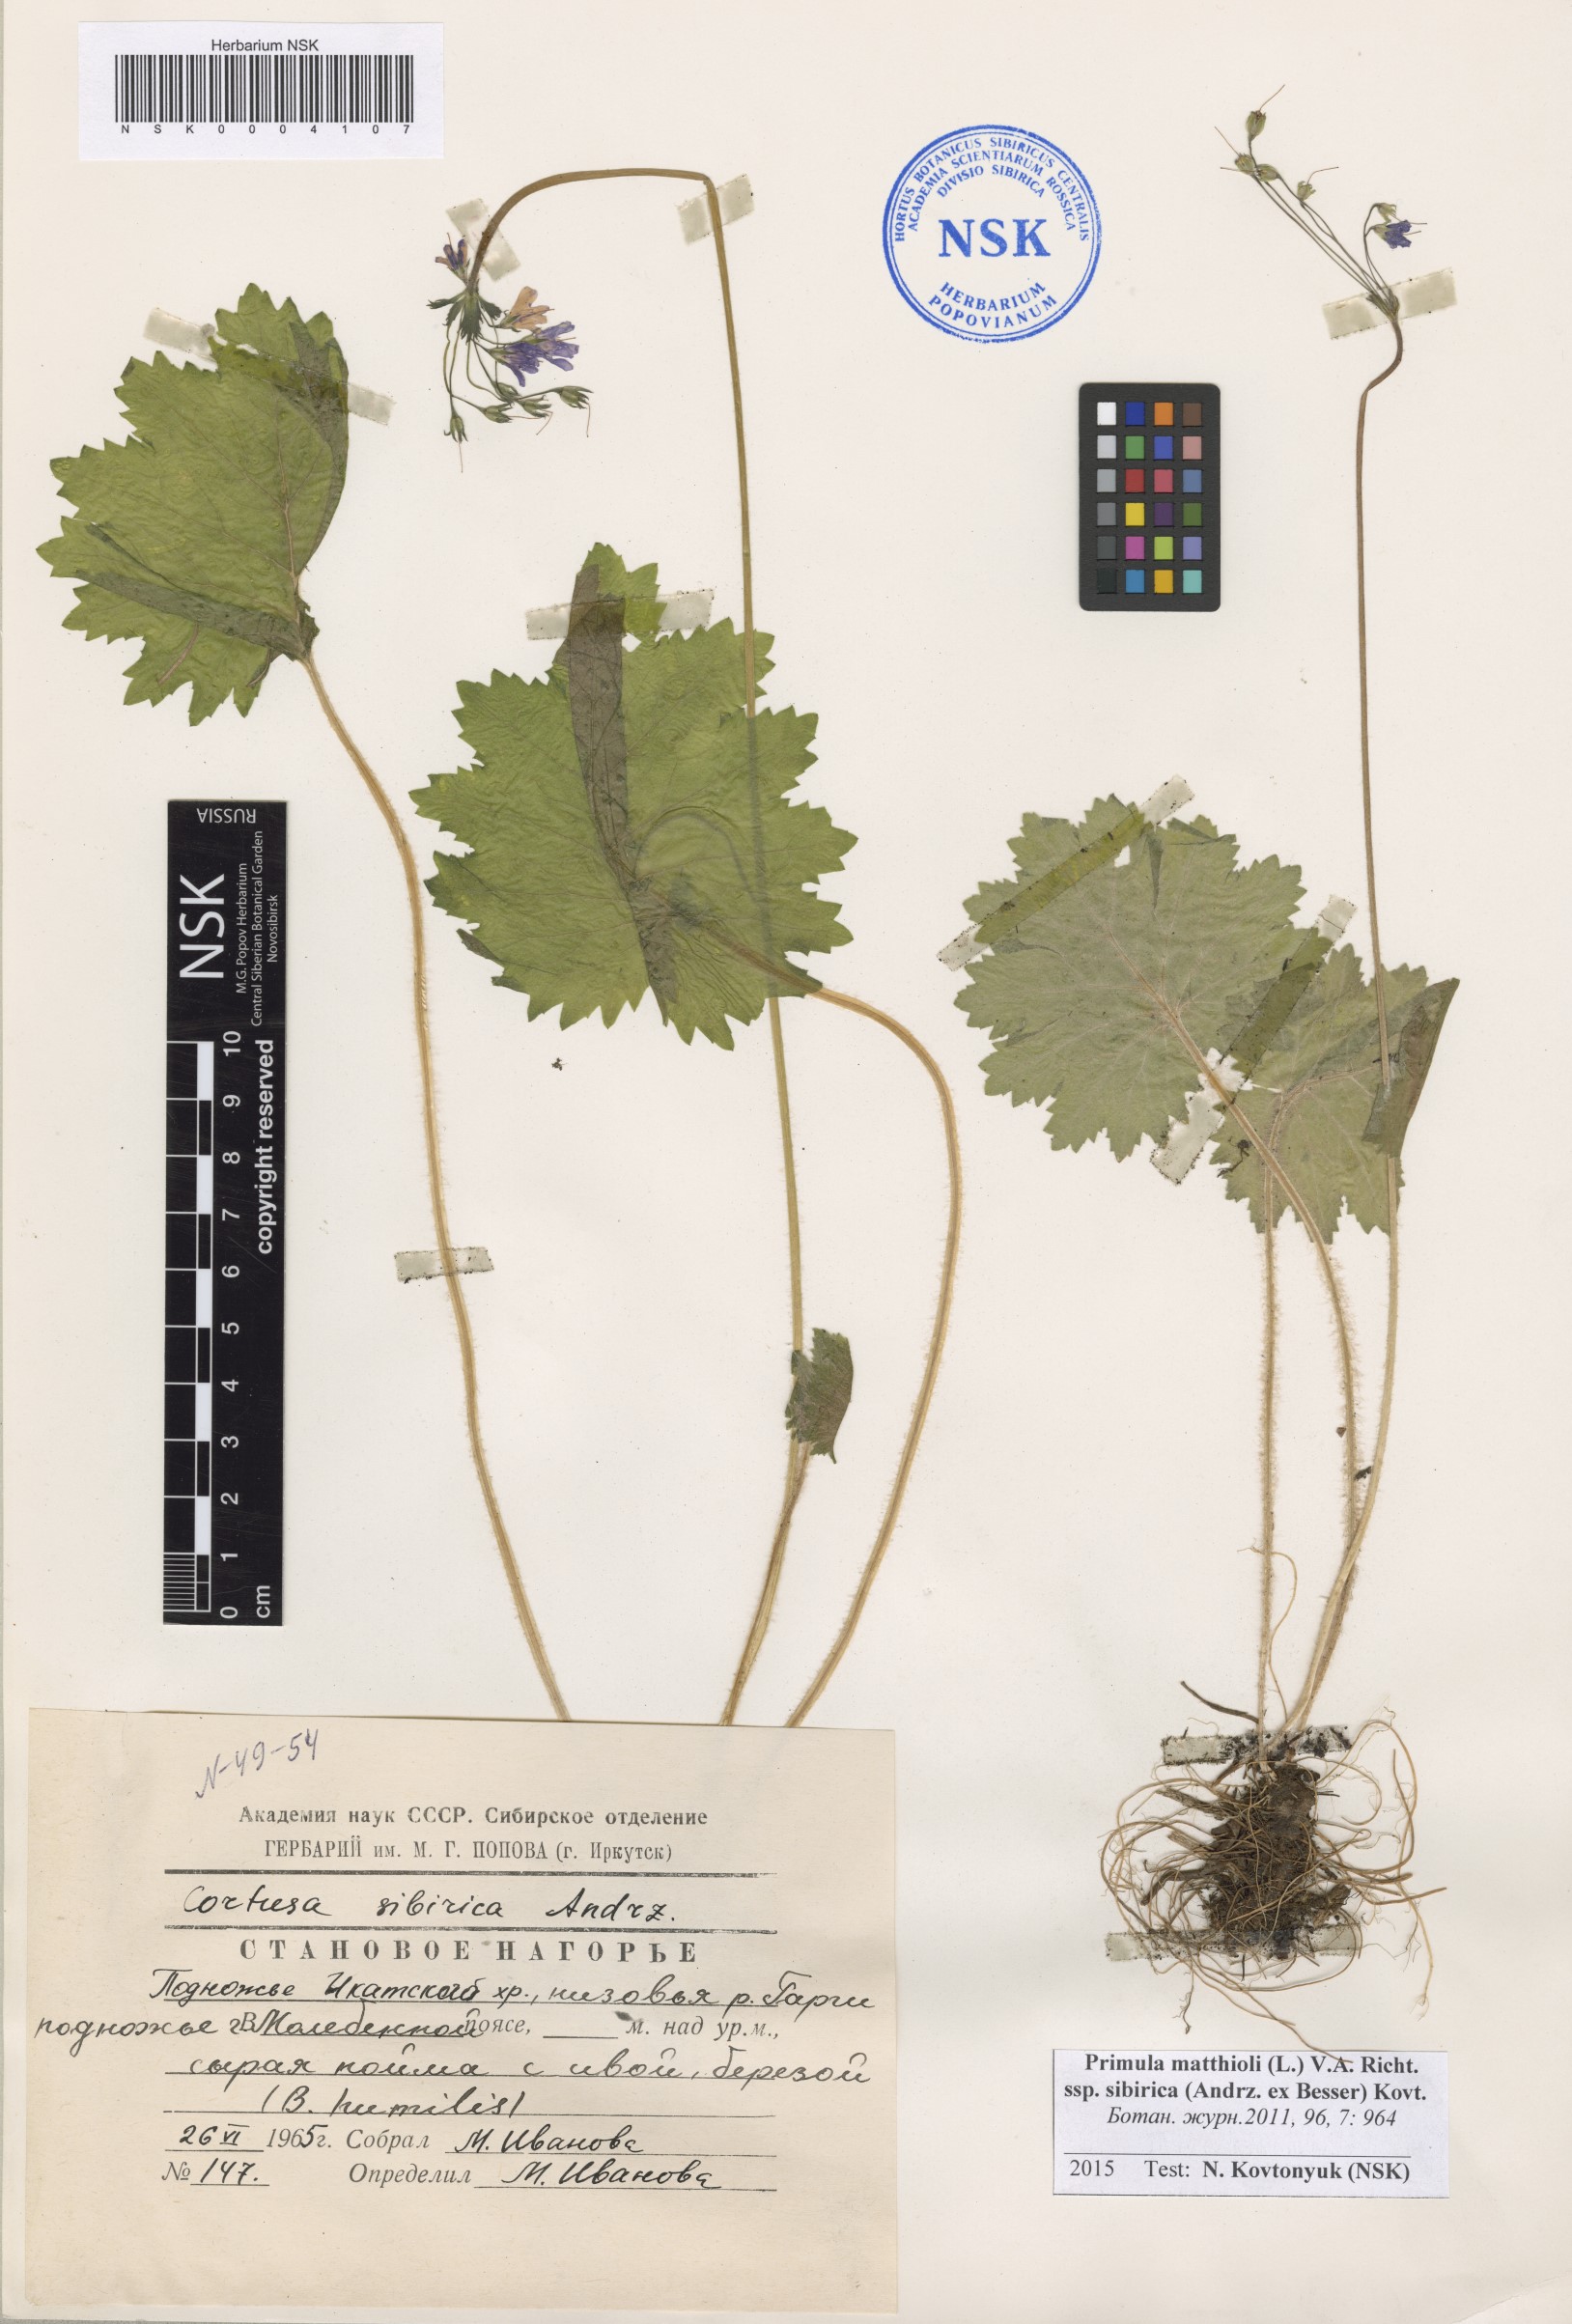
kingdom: Plantae
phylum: Tracheophyta
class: Magnoliopsida
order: Ericales
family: Primulaceae
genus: Primula
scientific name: Primula matthioli
